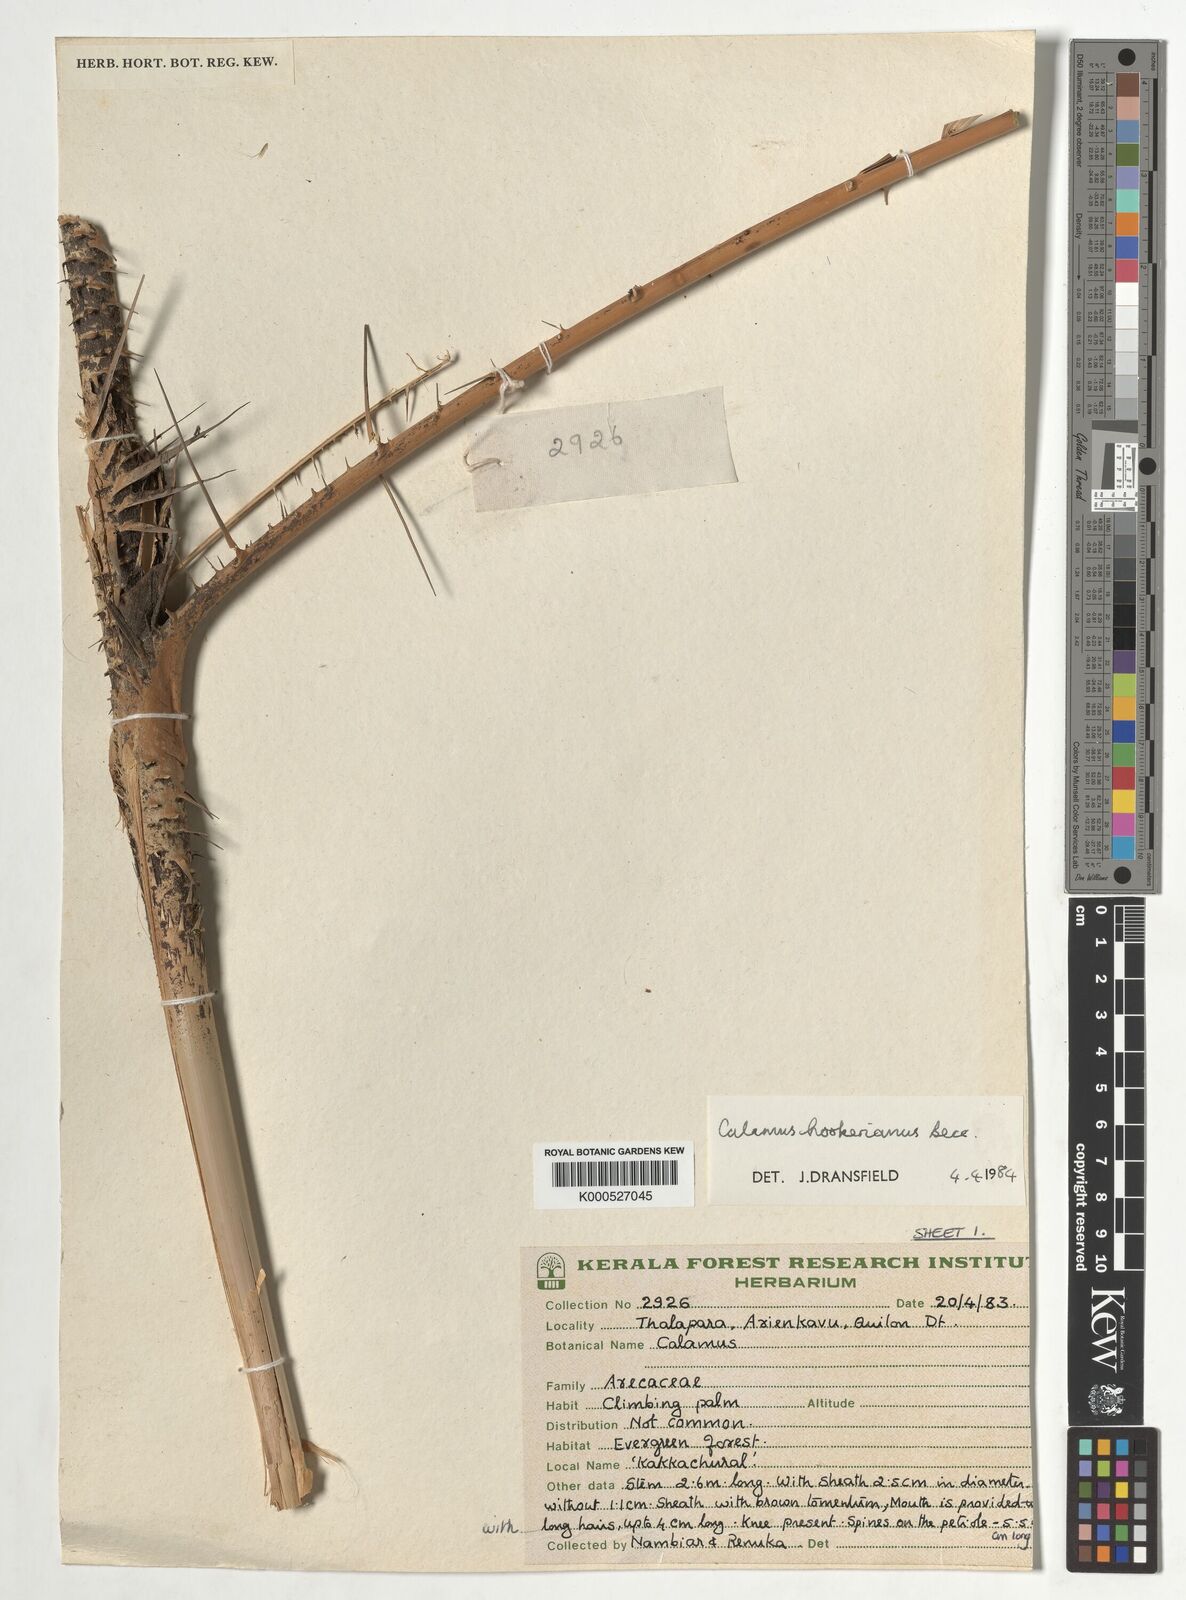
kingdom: Plantae
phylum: Tracheophyta
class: Liliopsida
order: Arecales
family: Arecaceae
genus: Calamus
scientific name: Calamus hookerianus
